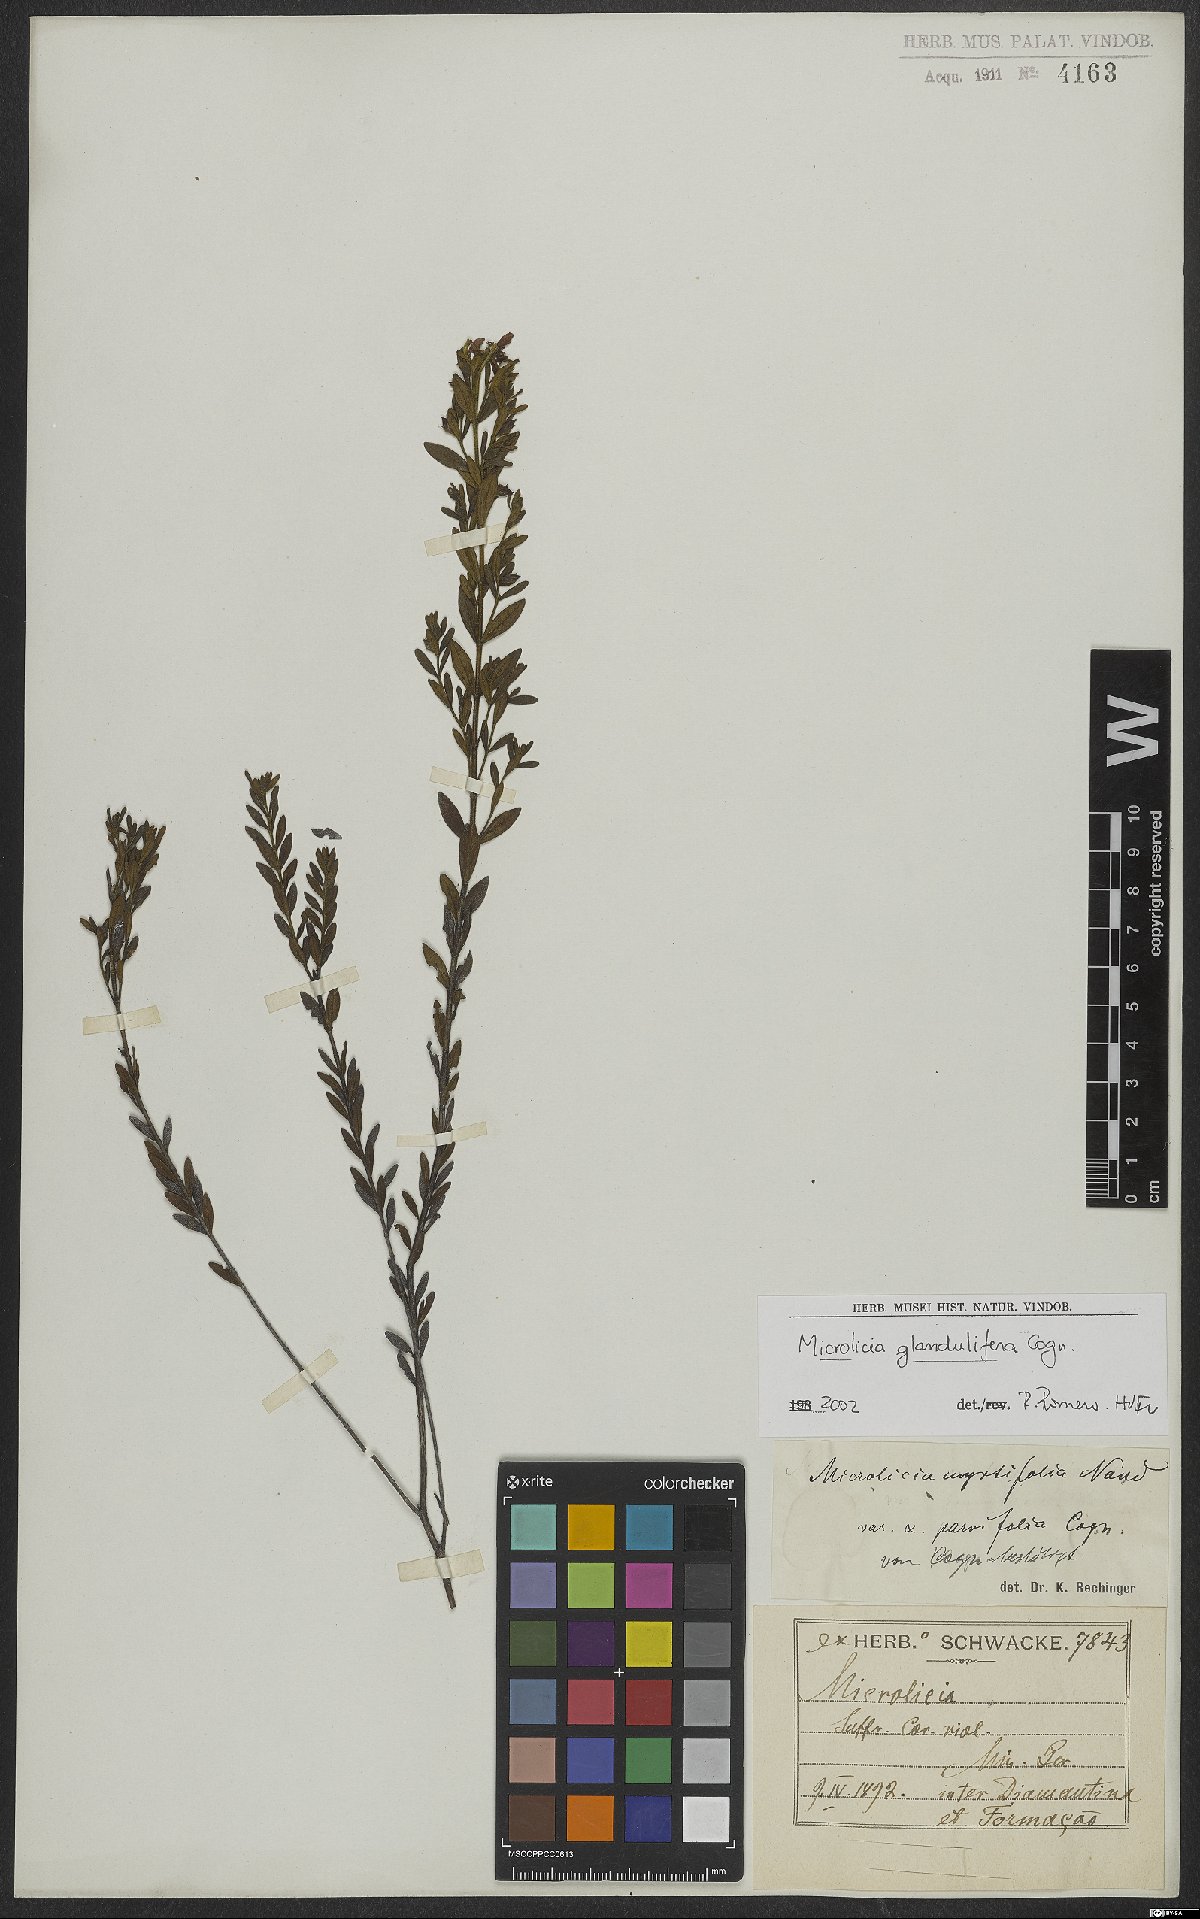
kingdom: Plantae
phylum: Tracheophyta
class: Magnoliopsida
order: Myrtales
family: Melastomataceae
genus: Microlicia
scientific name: Microlicia glandulifera
